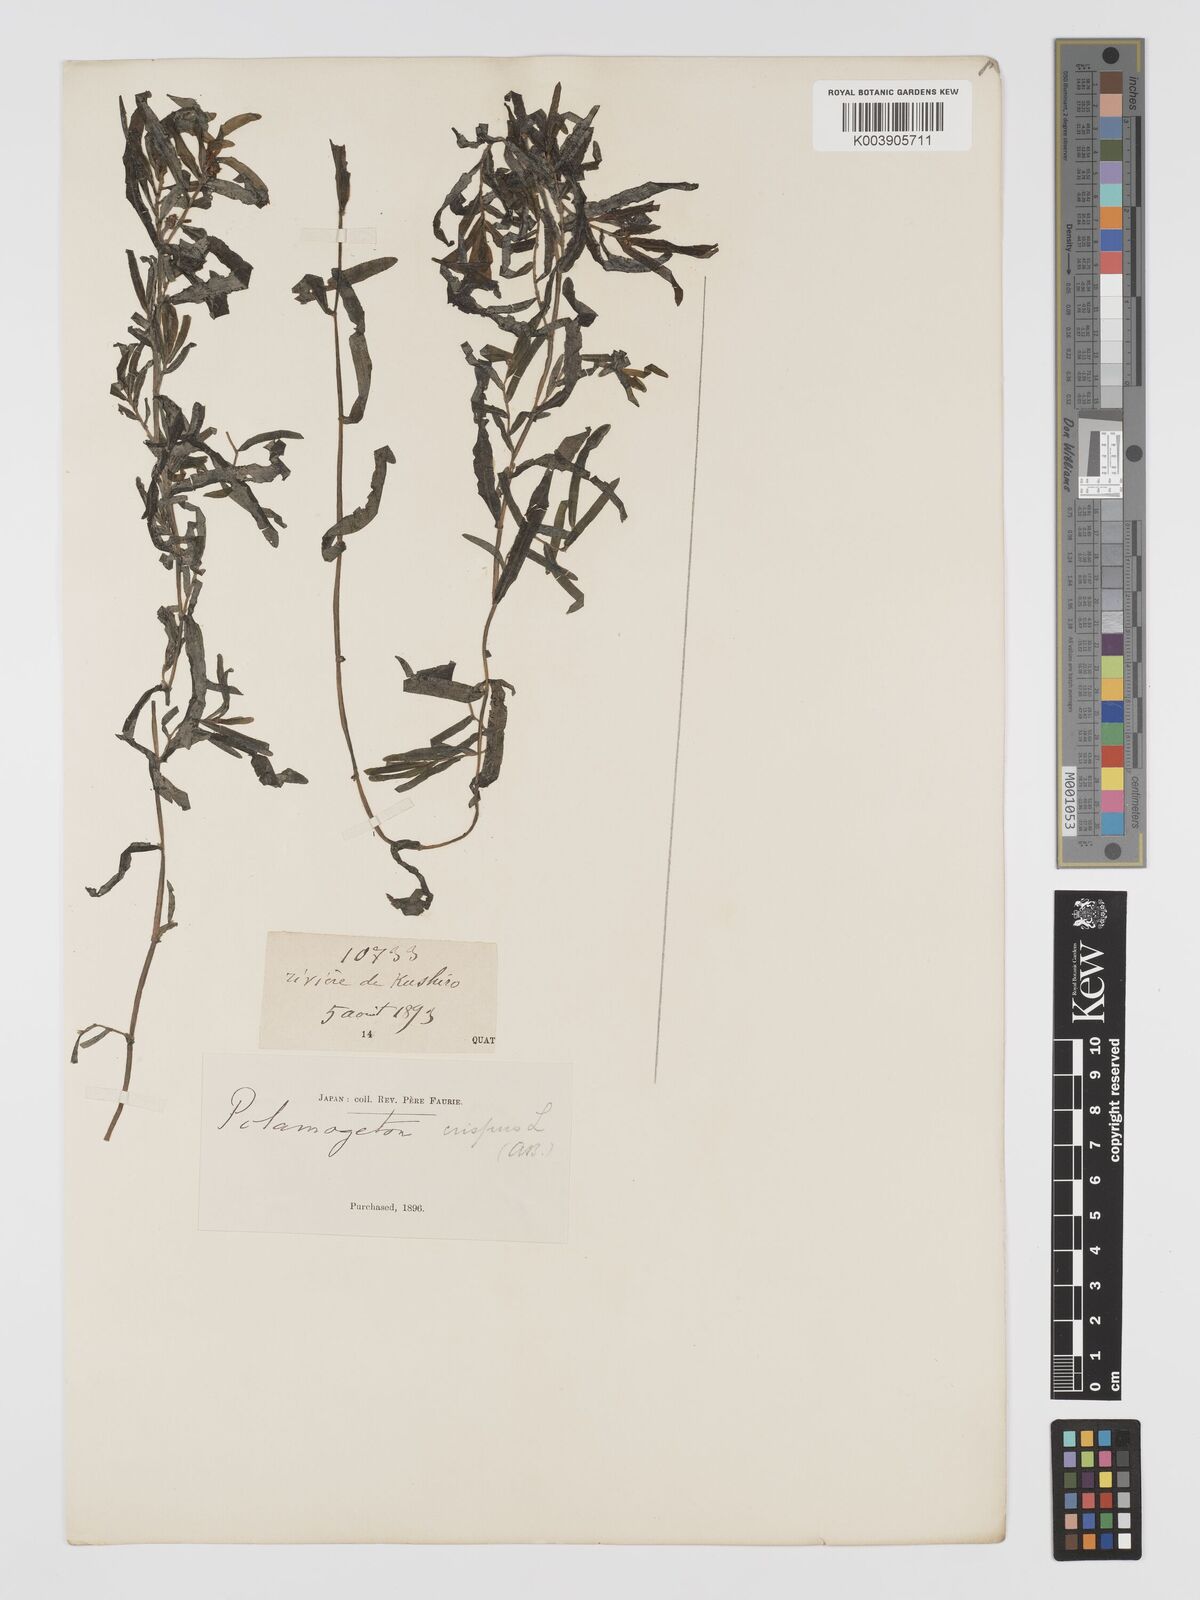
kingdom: Plantae
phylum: Tracheophyta
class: Liliopsida
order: Alismatales
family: Potamogetonaceae
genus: Potamogeton
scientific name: Potamogeton crispus
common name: Curled pondweed
